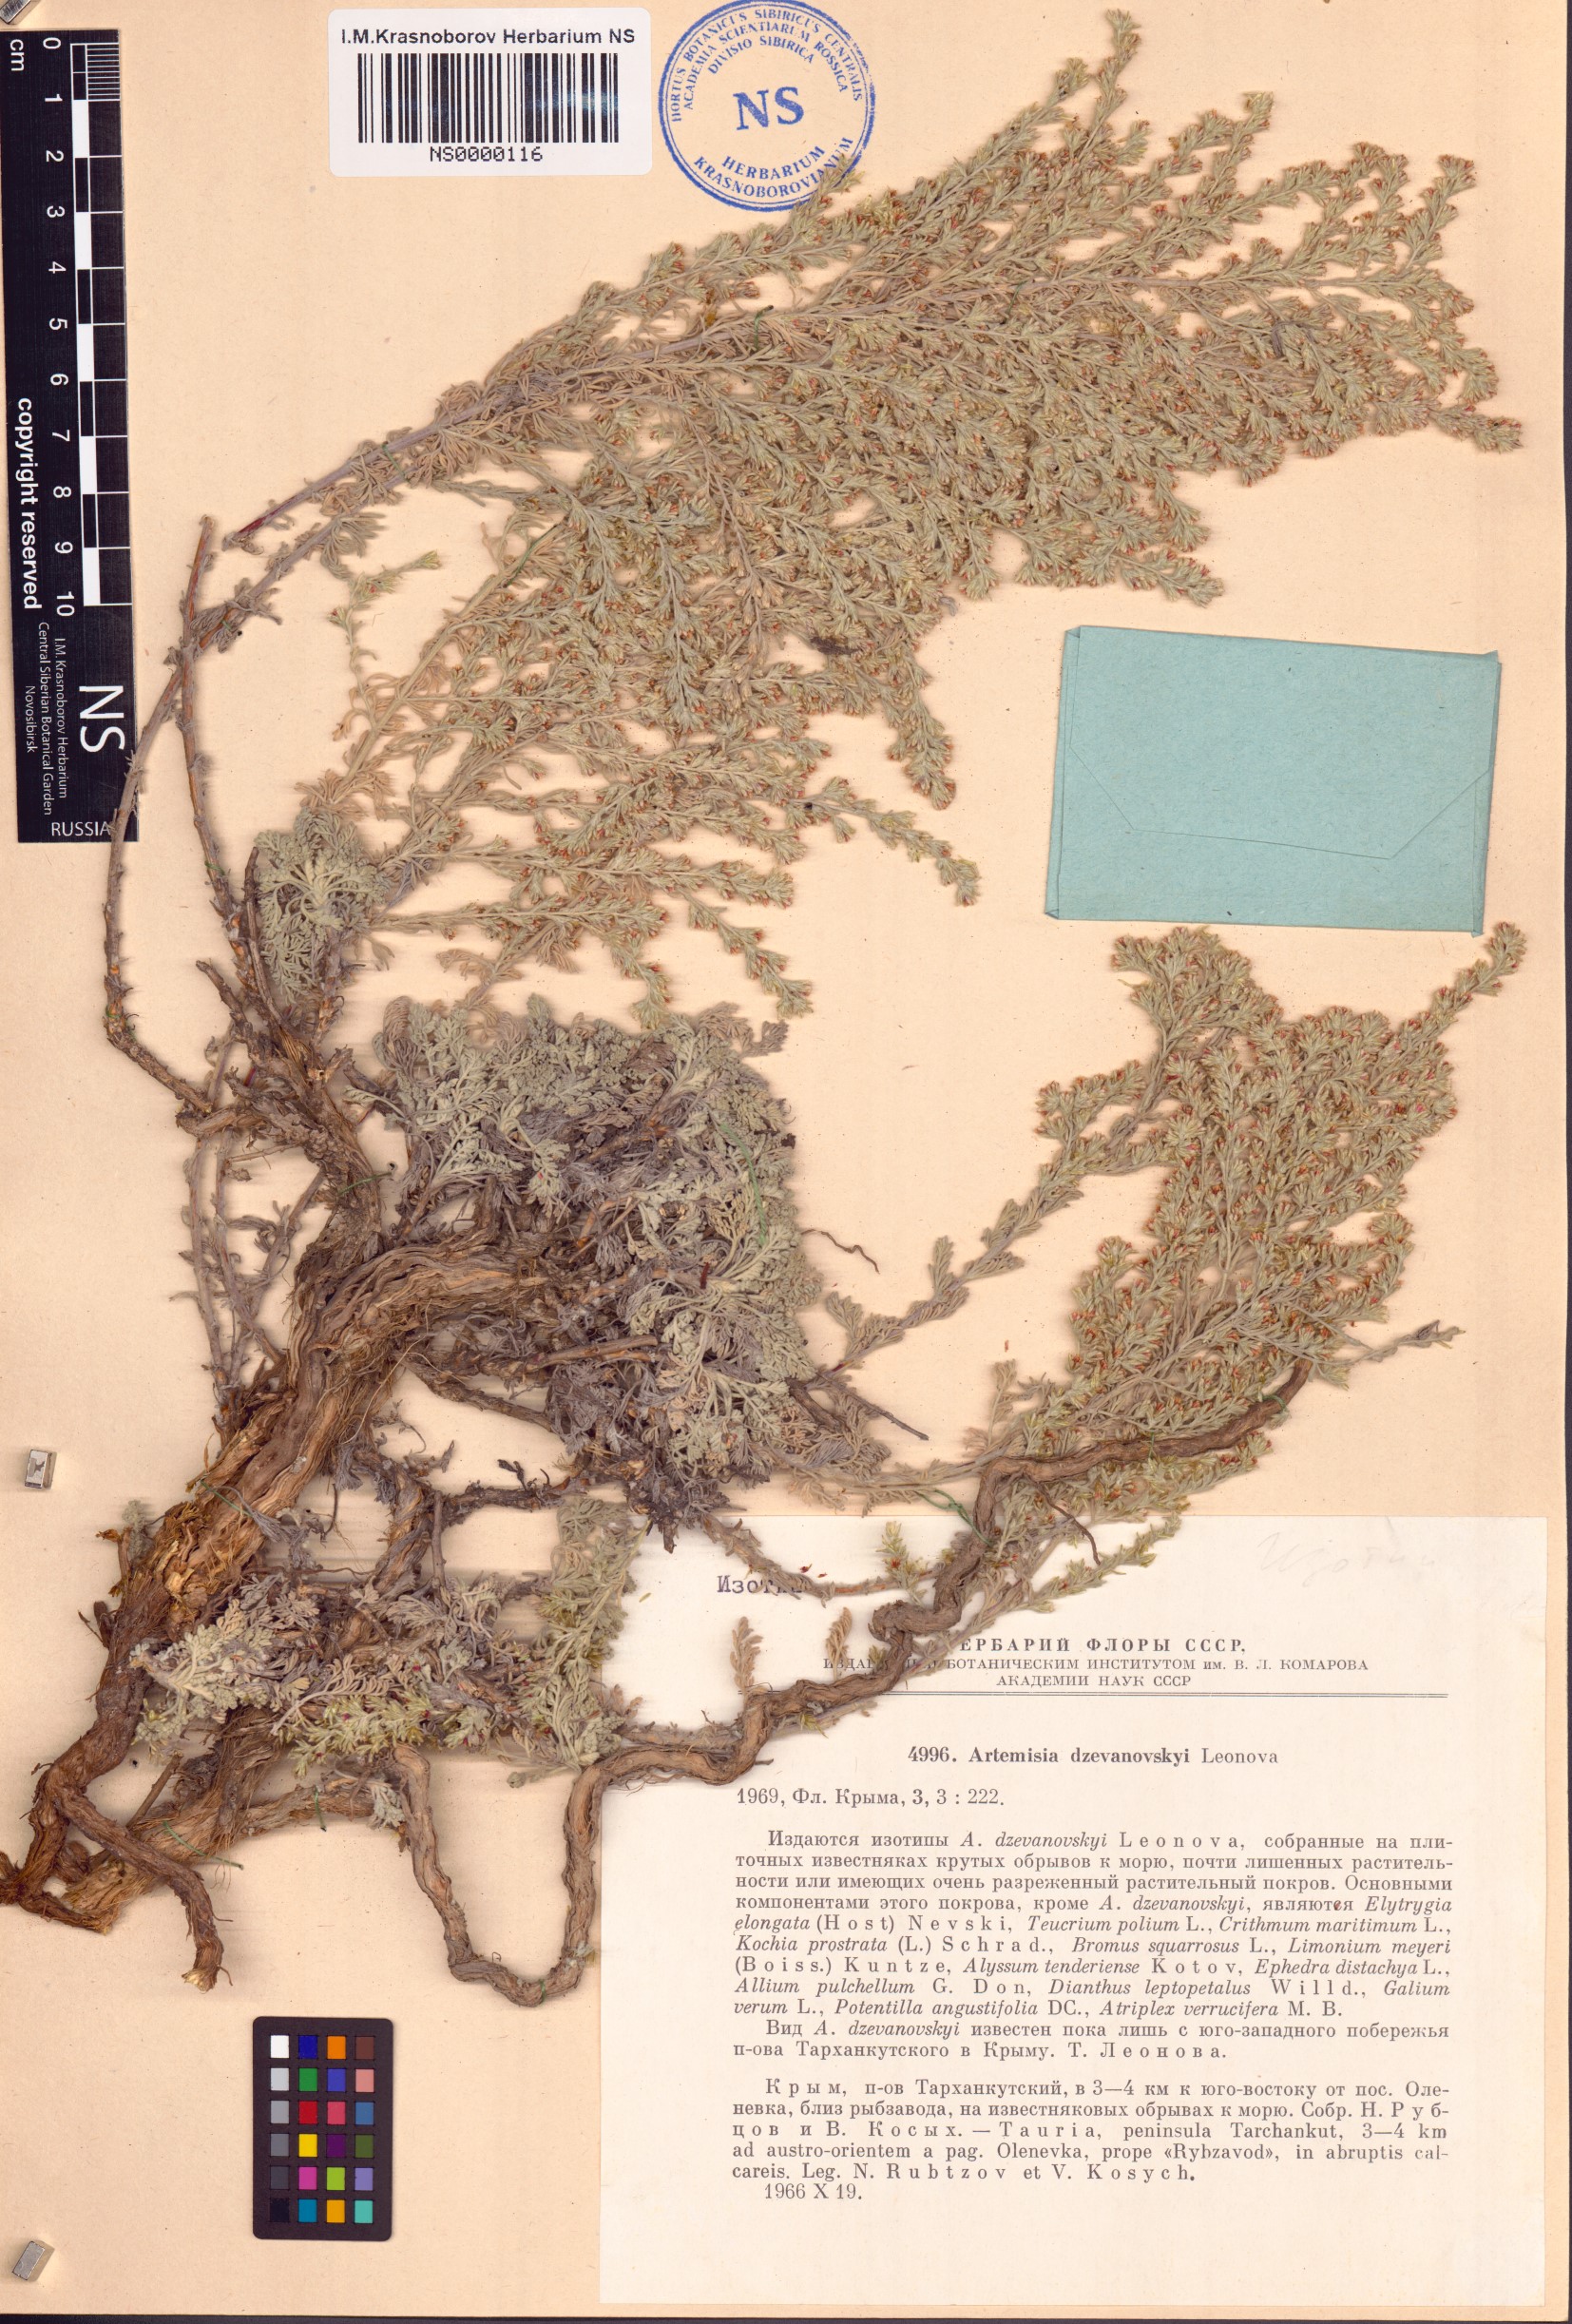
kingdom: Plantae
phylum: Tracheophyta
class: Magnoliopsida
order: Asterales
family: Asteraceae
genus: Artemisia
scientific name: Artemisia dzevanovskyi
